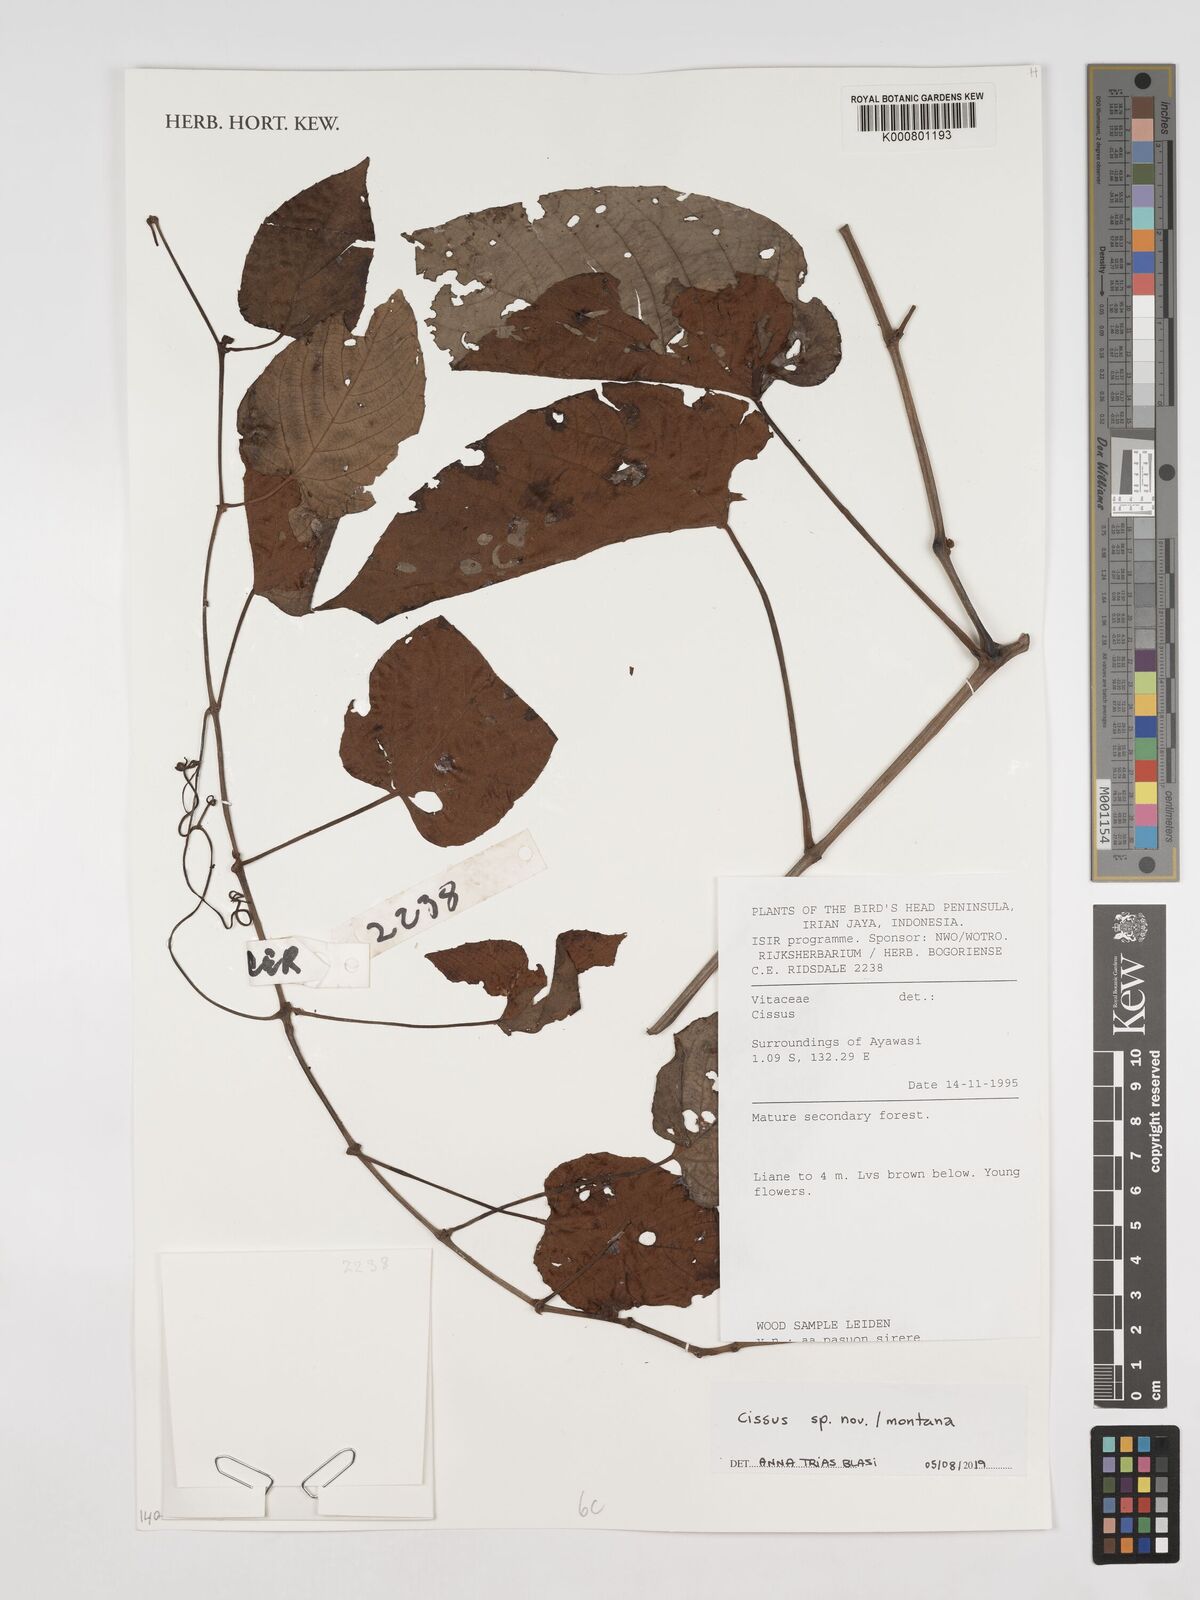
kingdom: Plantae
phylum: Tracheophyta
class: Magnoliopsida
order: Vitales
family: Vitaceae
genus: Cissus
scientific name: Cissus
